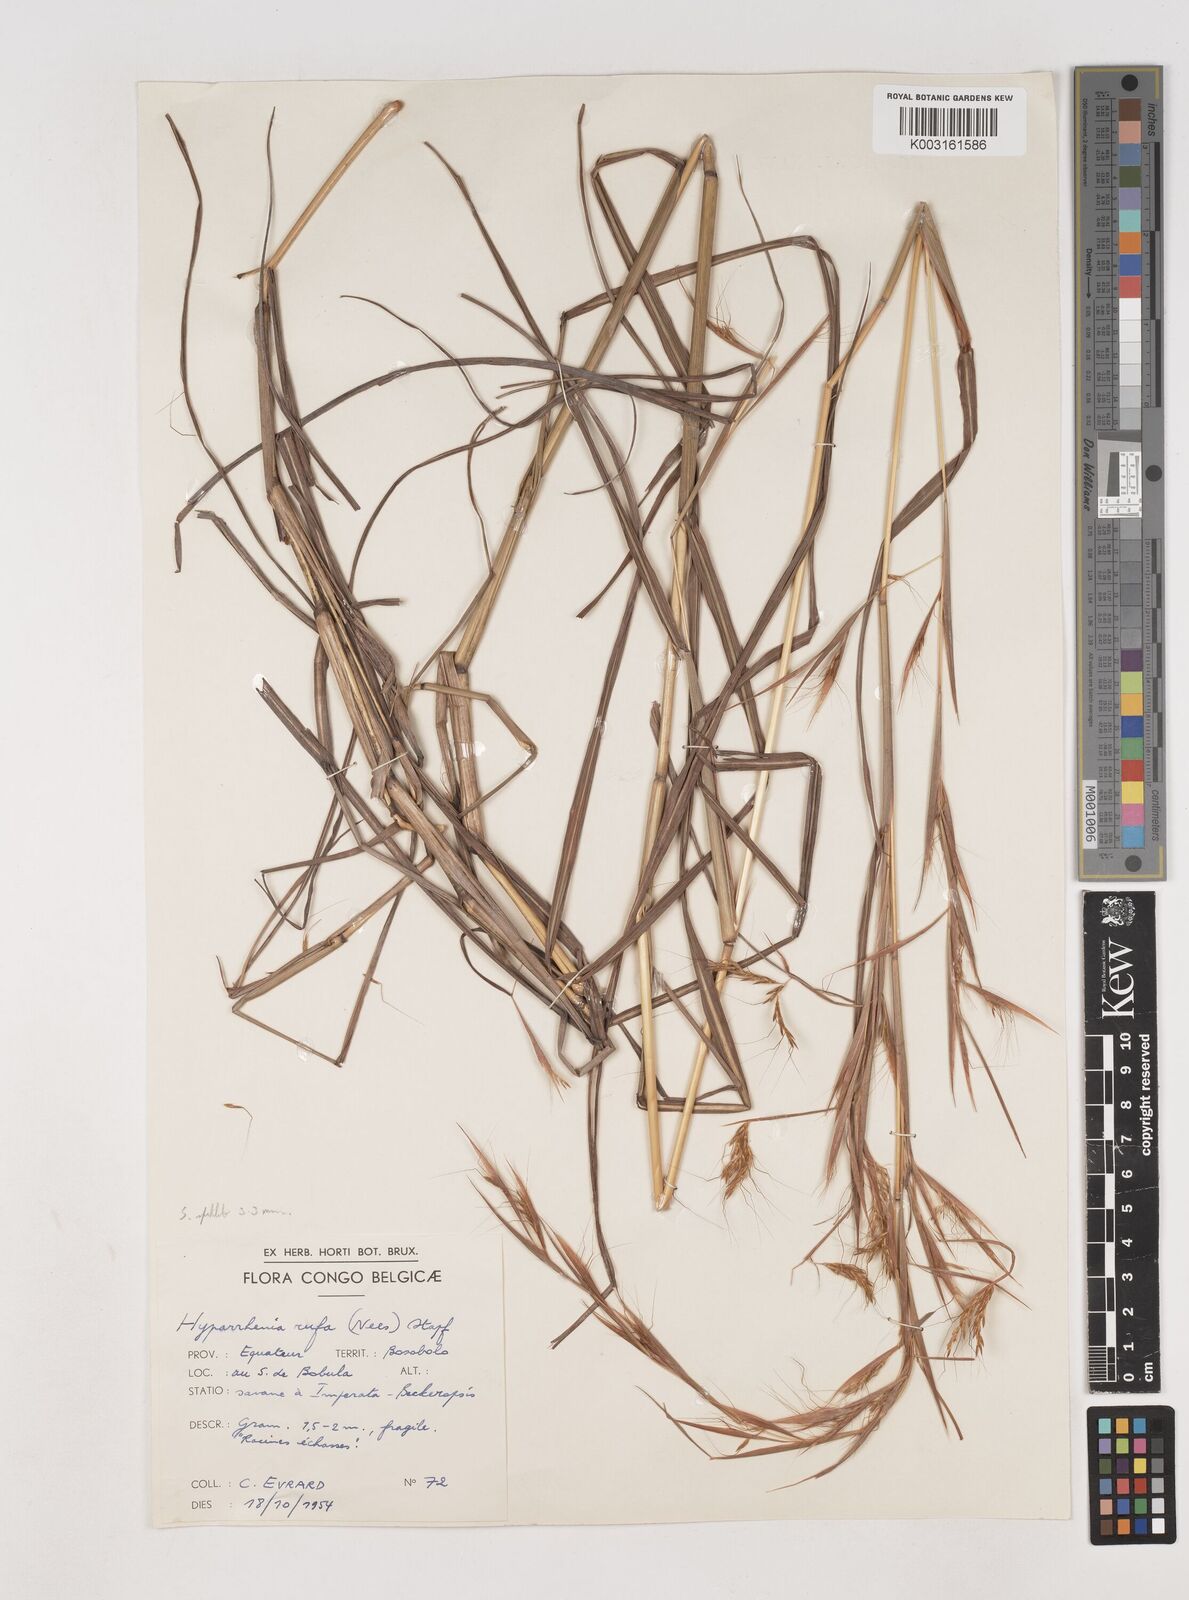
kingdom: Plantae
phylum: Tracheophyta
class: Liliopsida
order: Poales
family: Poaceae
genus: Hyparrhenia
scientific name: Hyparrhenia rufa
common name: Jaraguagrass
